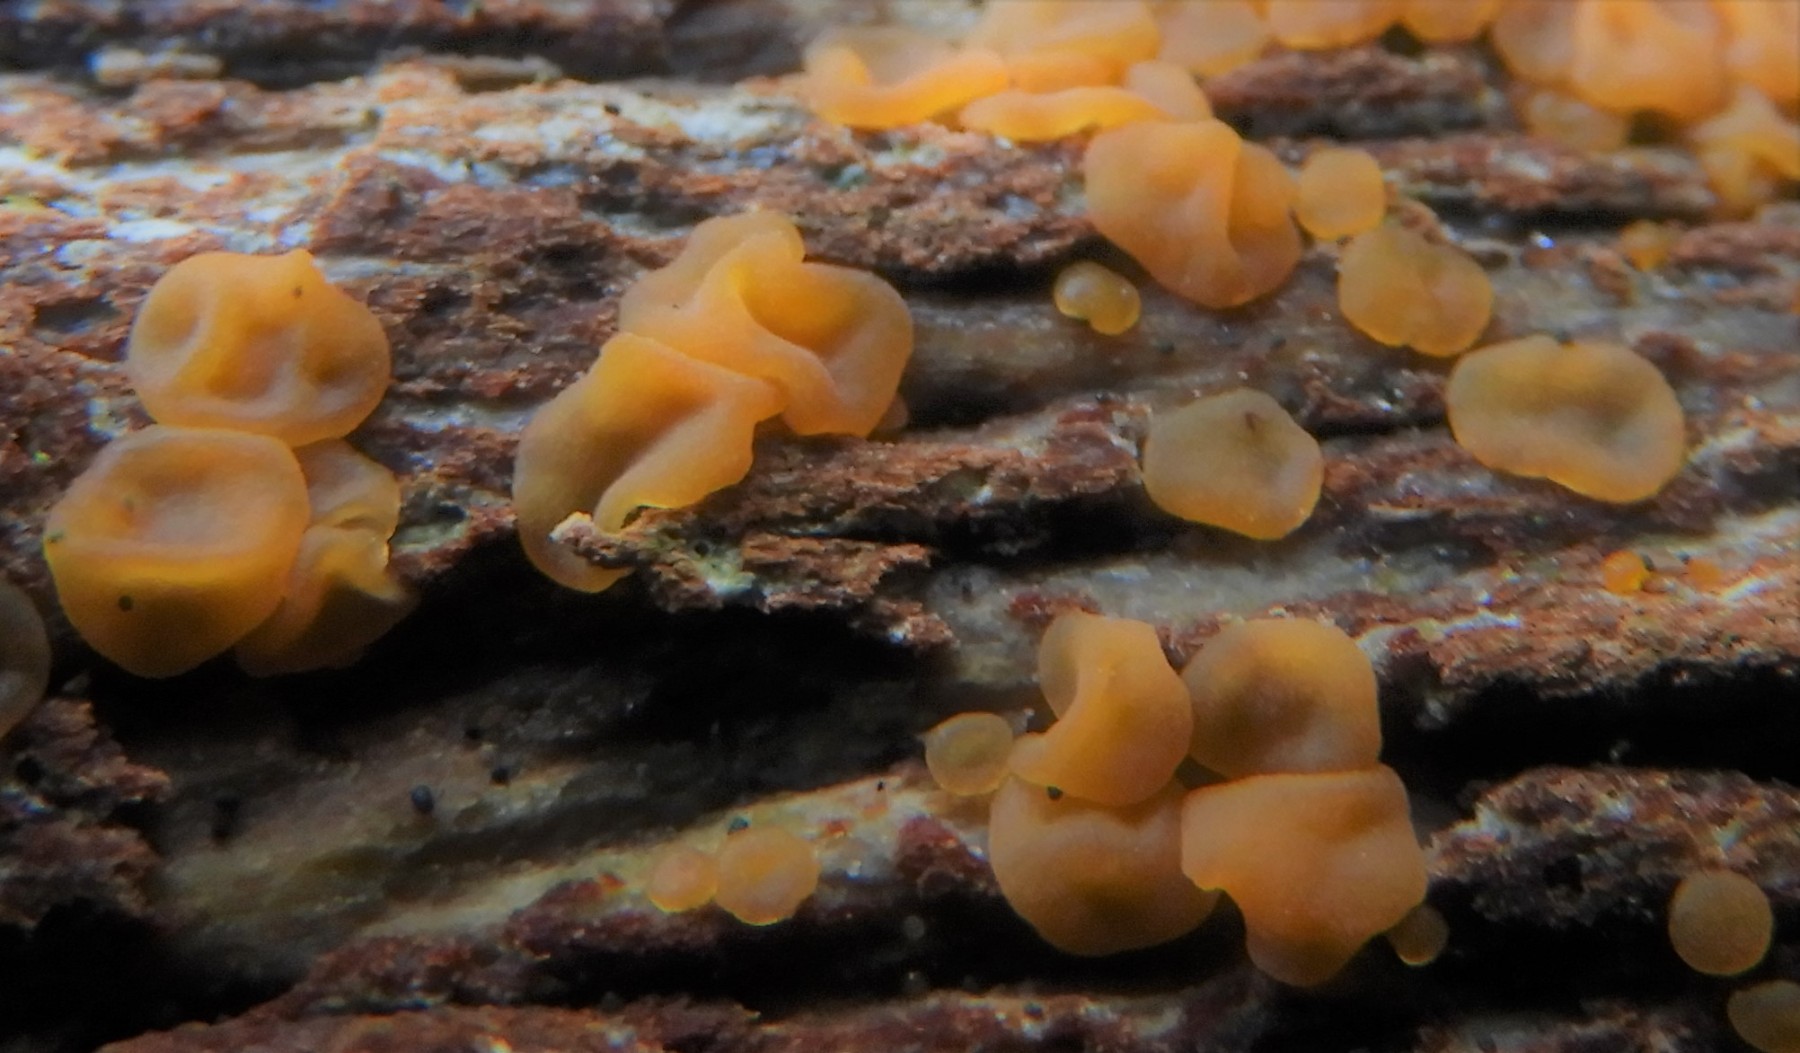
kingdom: Fungi
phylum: Basidiomycota
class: Dacrymycetes
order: Dacrymycetales
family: Dacrymycetaceae
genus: Dacrymyces
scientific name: Dacrymyces stillatus
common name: almindelig tåresvamp
